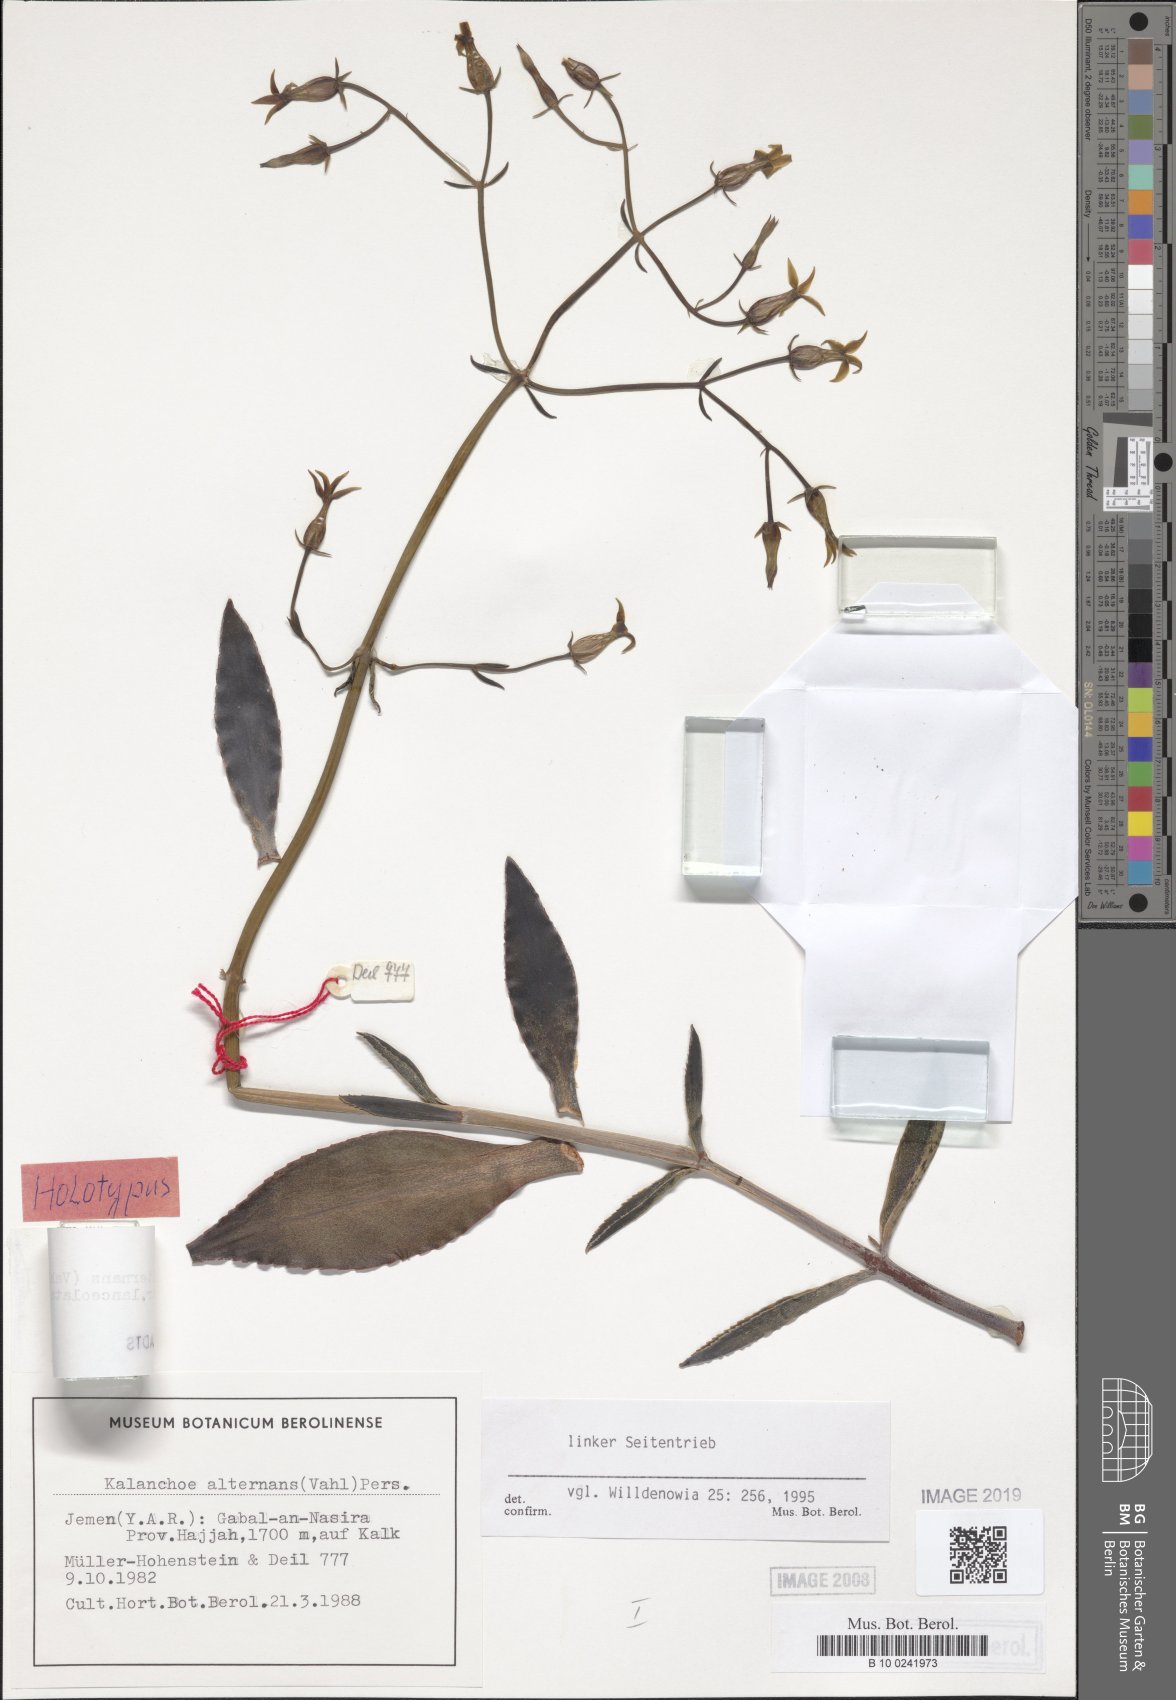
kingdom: Plantae
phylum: Tracheophyta
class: Magnoliopsida
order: Saxifragales
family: Crassulaceae
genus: Kalanchoe
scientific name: Kalanchoe alternans
